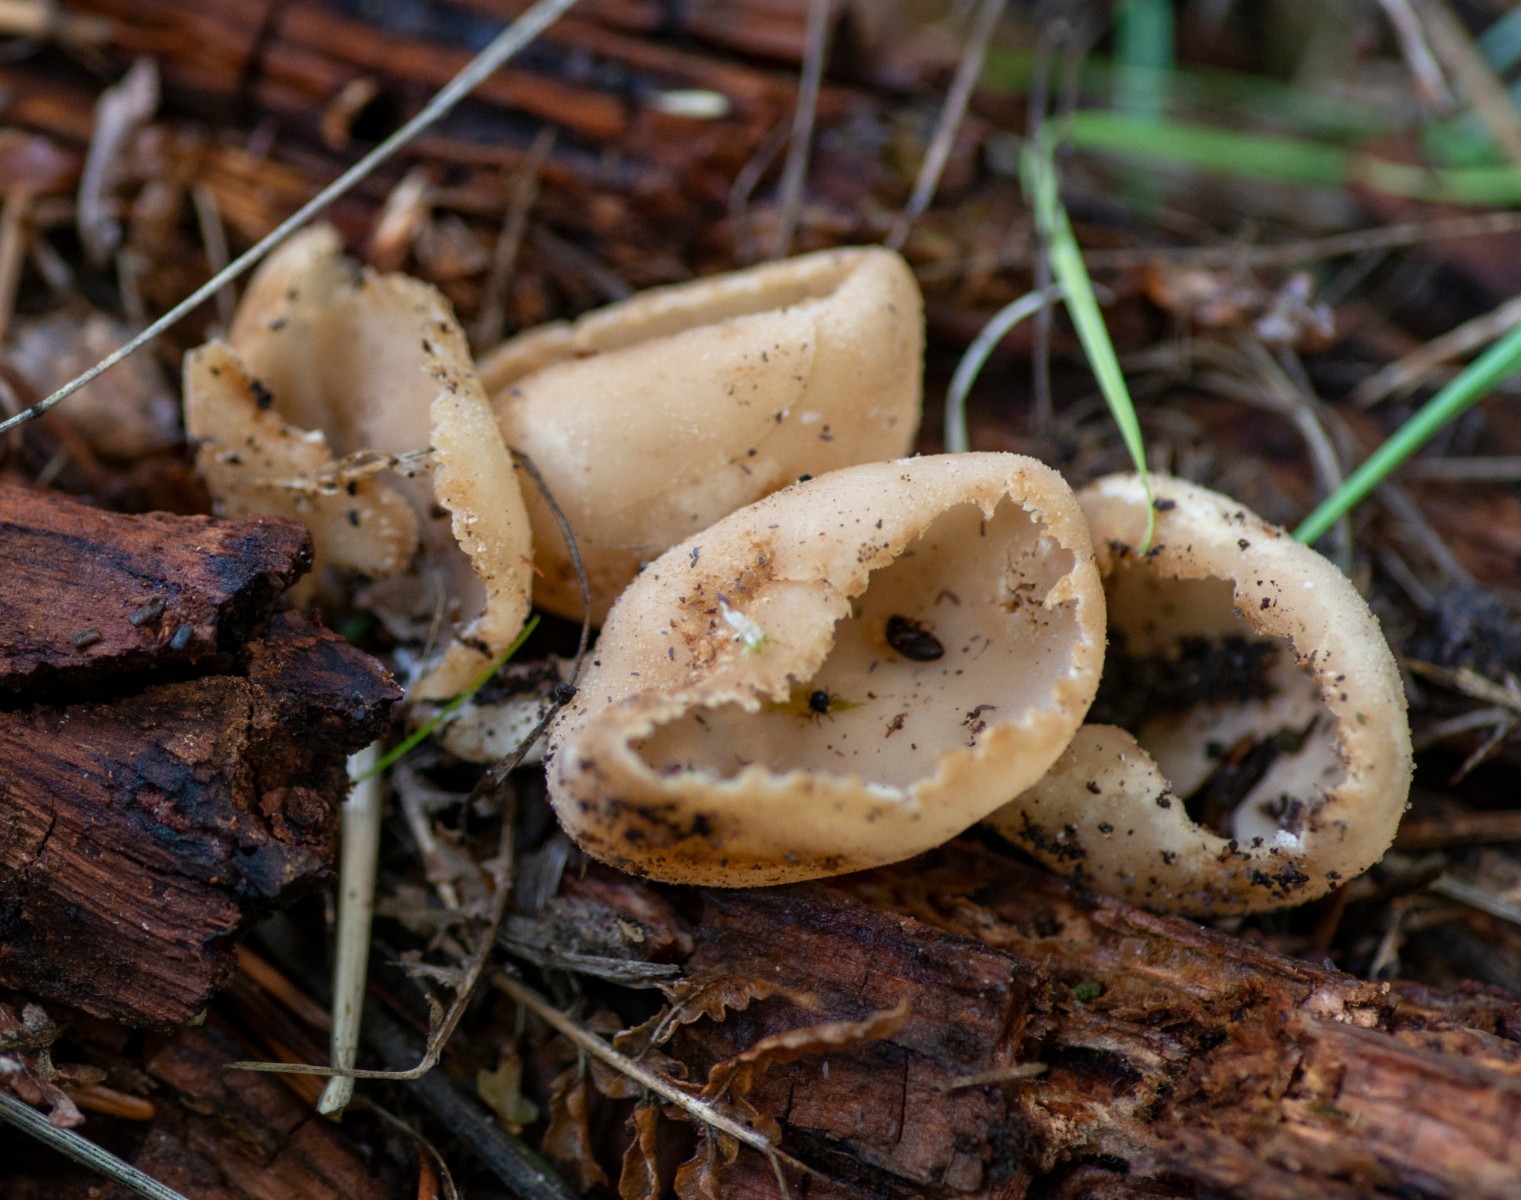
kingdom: Fungi
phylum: Ascomycota
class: Pezizomycetes
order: Pezizales
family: Pyronemataceae
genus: Tarzetta
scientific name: Tarzetta cupularis
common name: gulbrun pokalbæger
